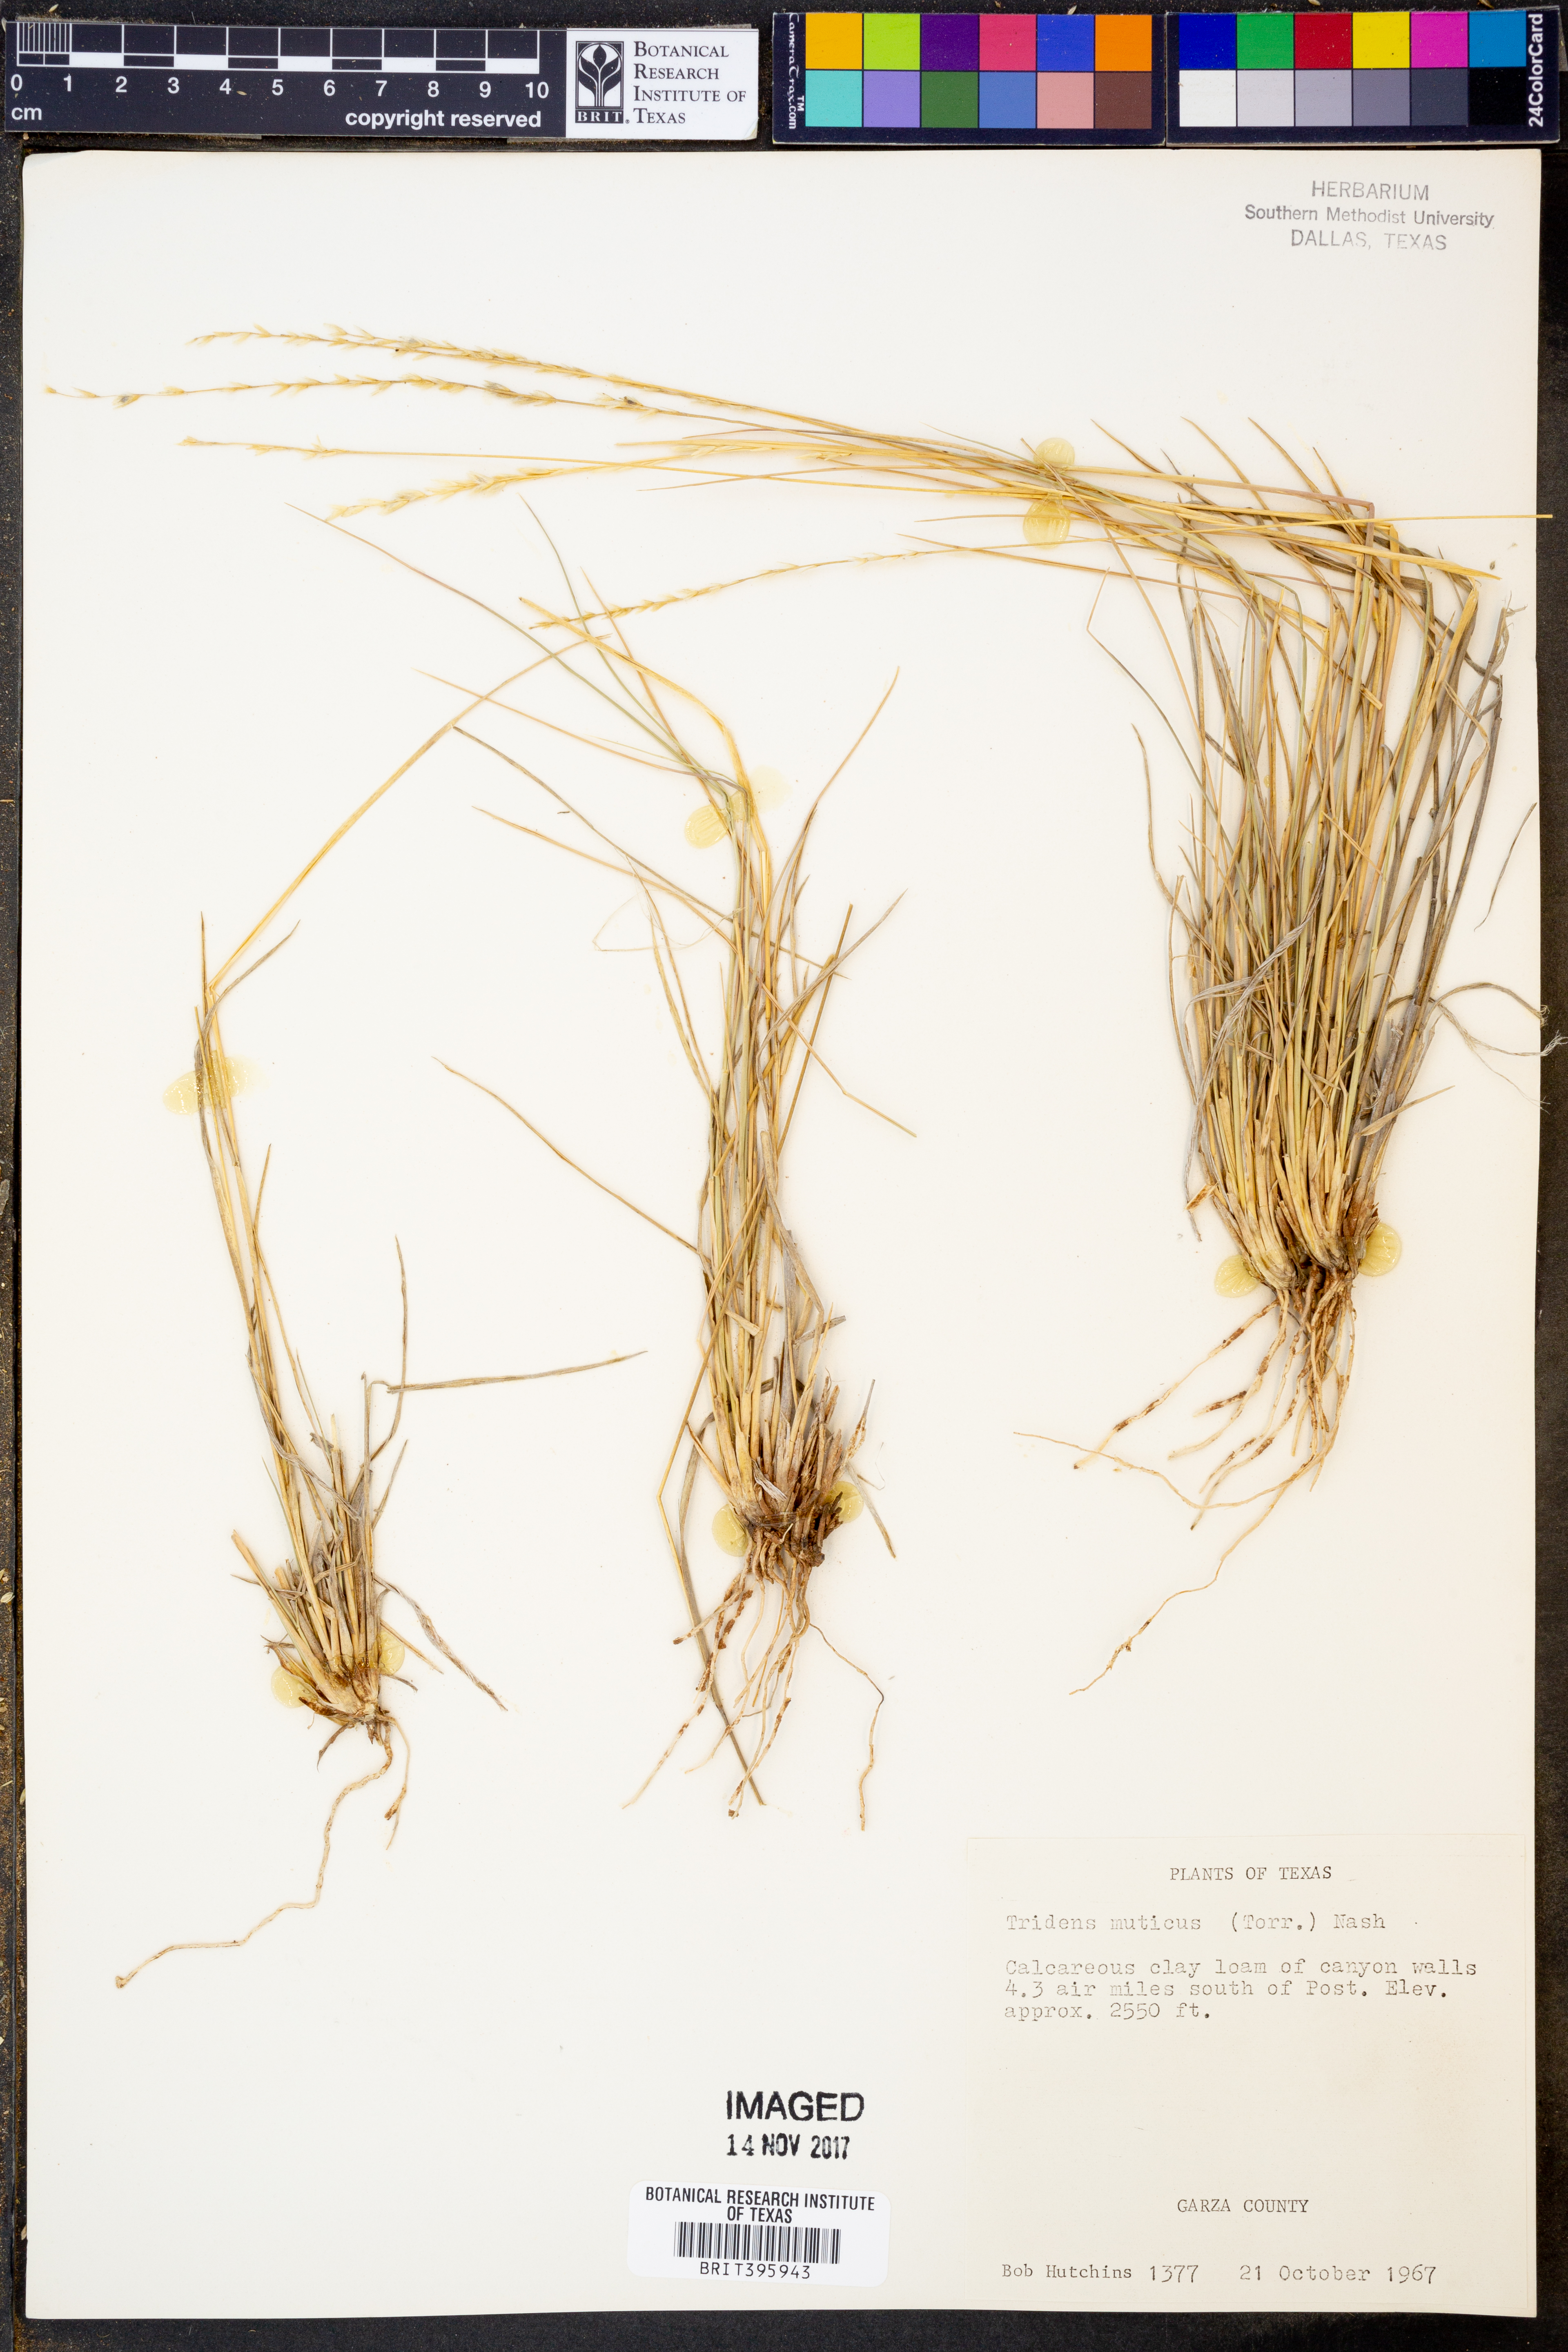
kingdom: Plantae
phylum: Tracheophyta
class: Liliopsida
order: Poales
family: Poaceae
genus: Tridentopsis
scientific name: Tridentopsis mutica
